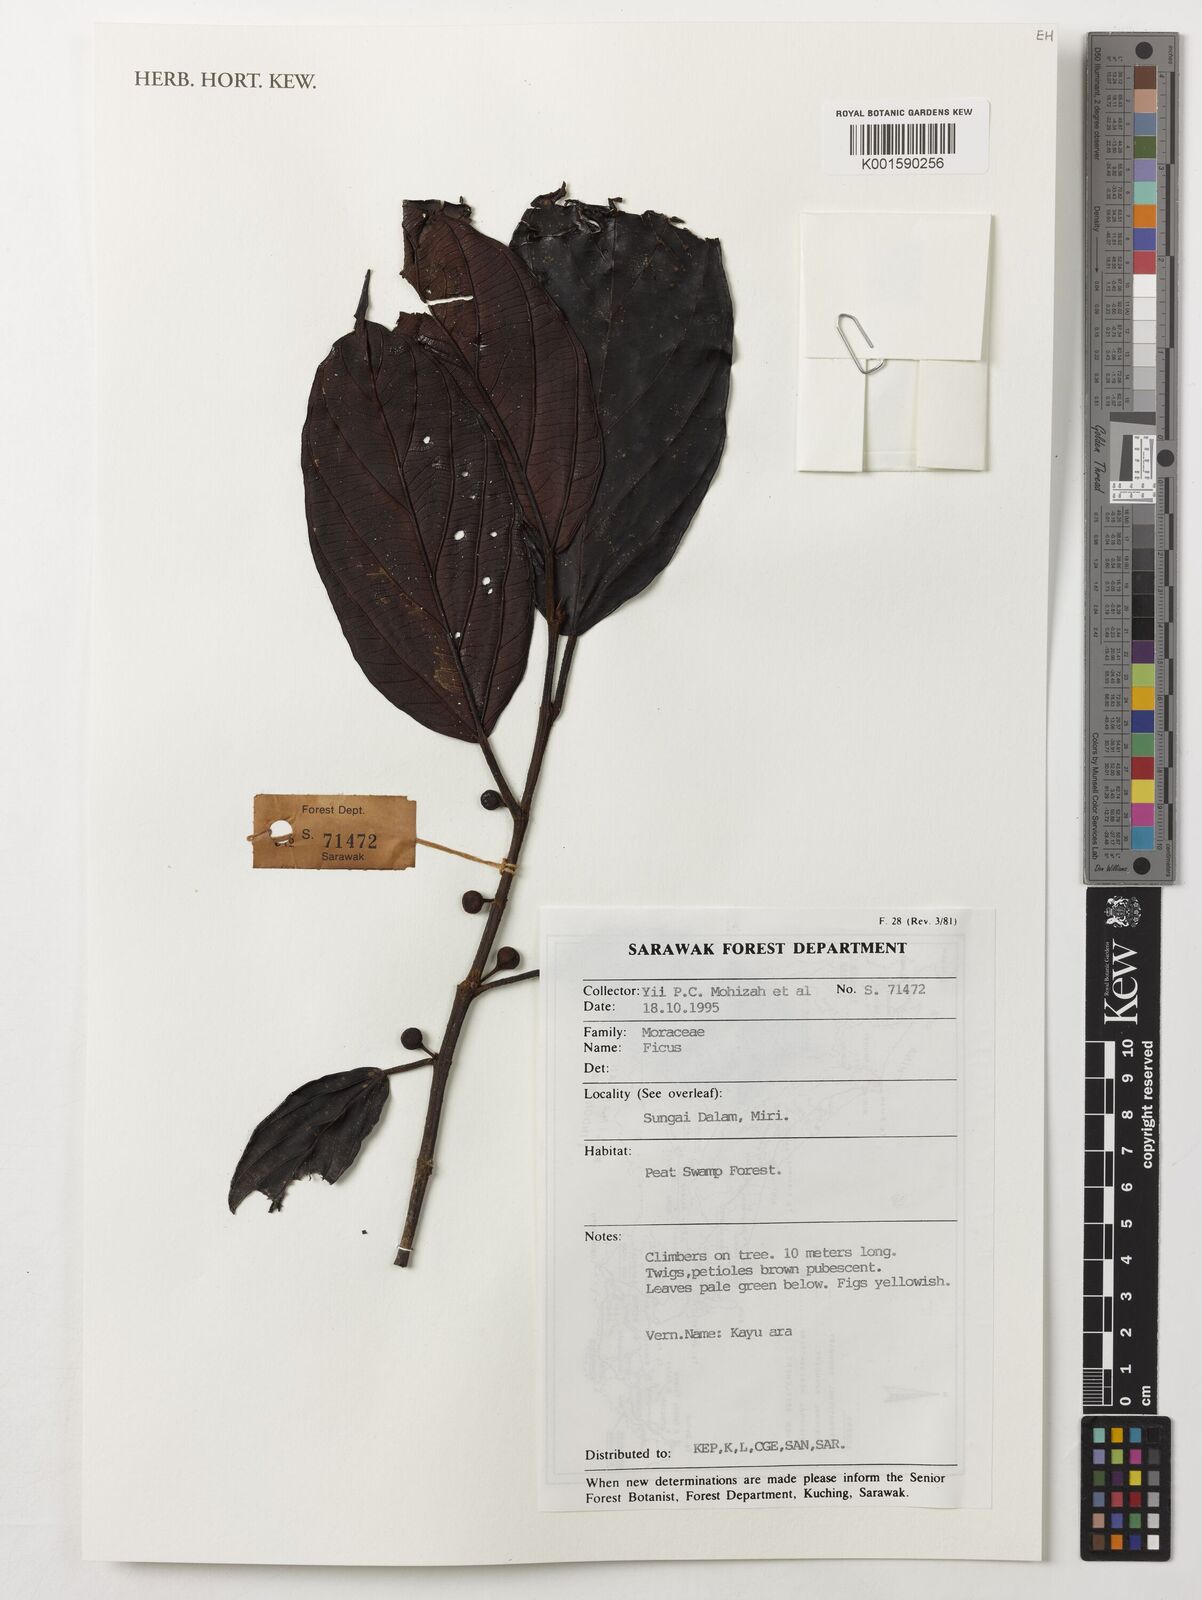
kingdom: Plantae
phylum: Tracheophyta
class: Magnoliopsida
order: Rosales
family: Moraceae
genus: Ficus
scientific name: Ficus
